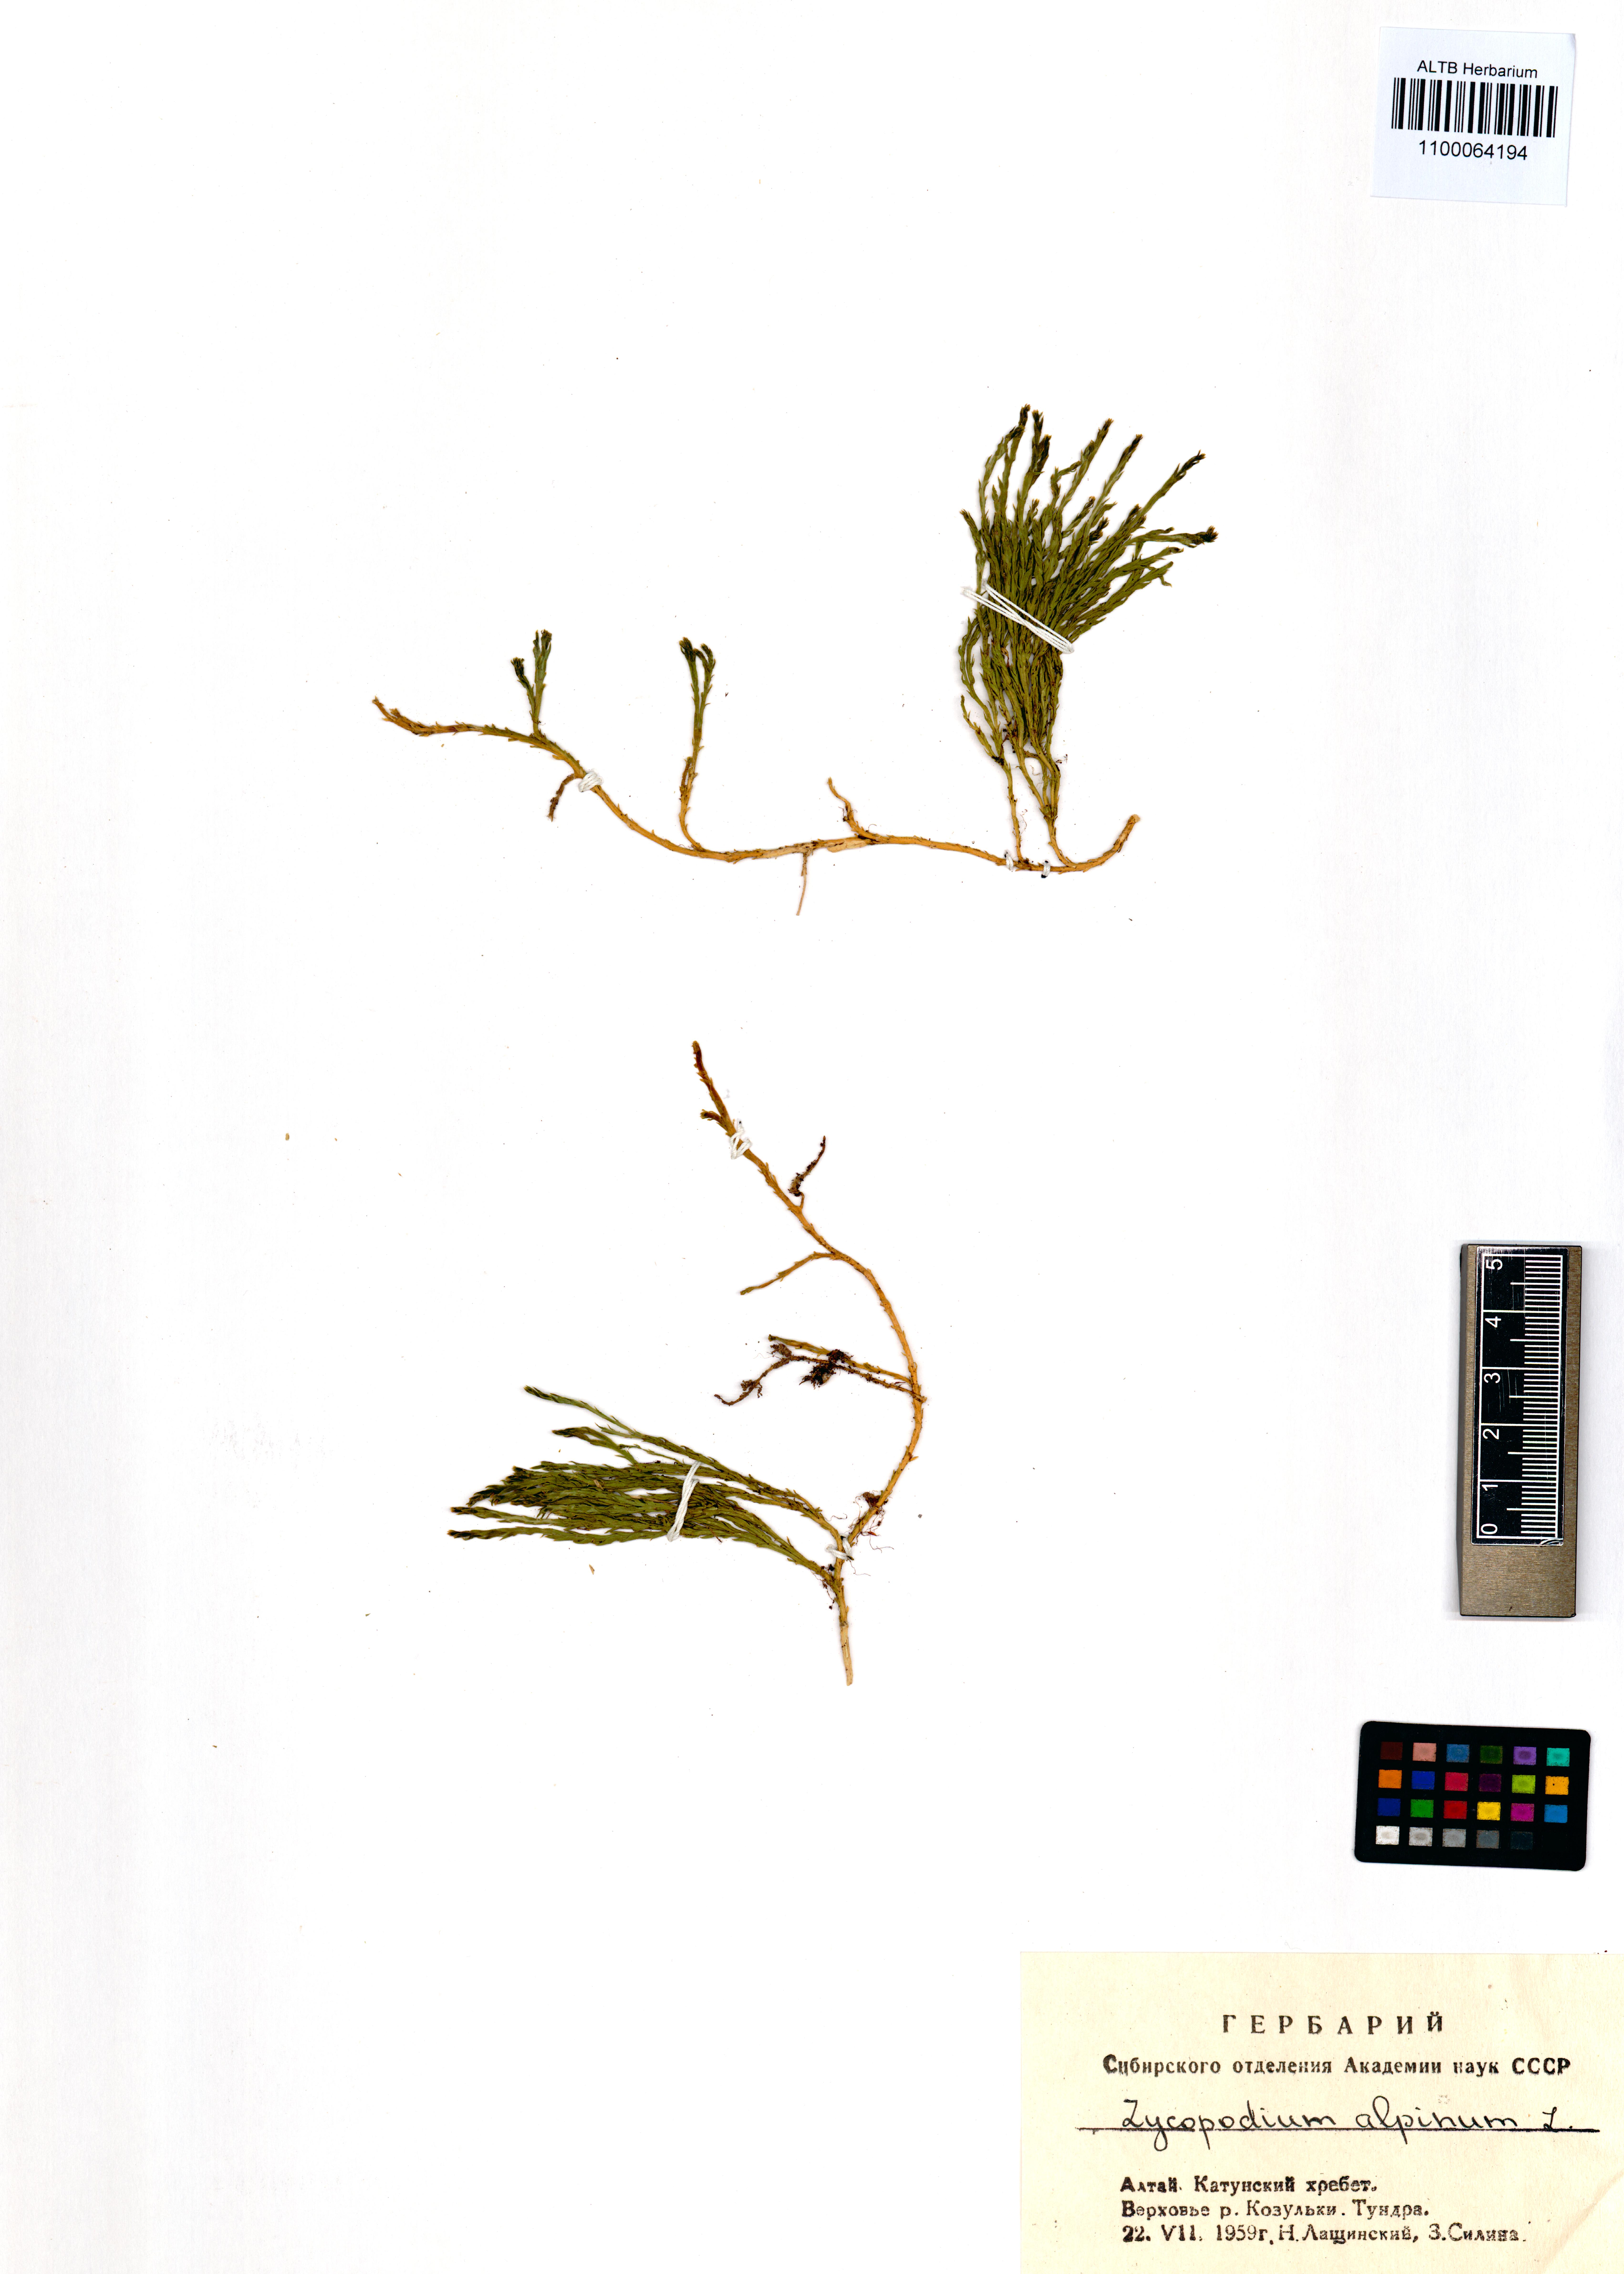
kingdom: Plantae
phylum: Tracheophyta
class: Lycopodiopsida
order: Lycopodiales
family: Lycopodiaceae
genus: Diphasiastrum
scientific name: Diphasiastrum alpinum
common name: Alpine clubmoss
